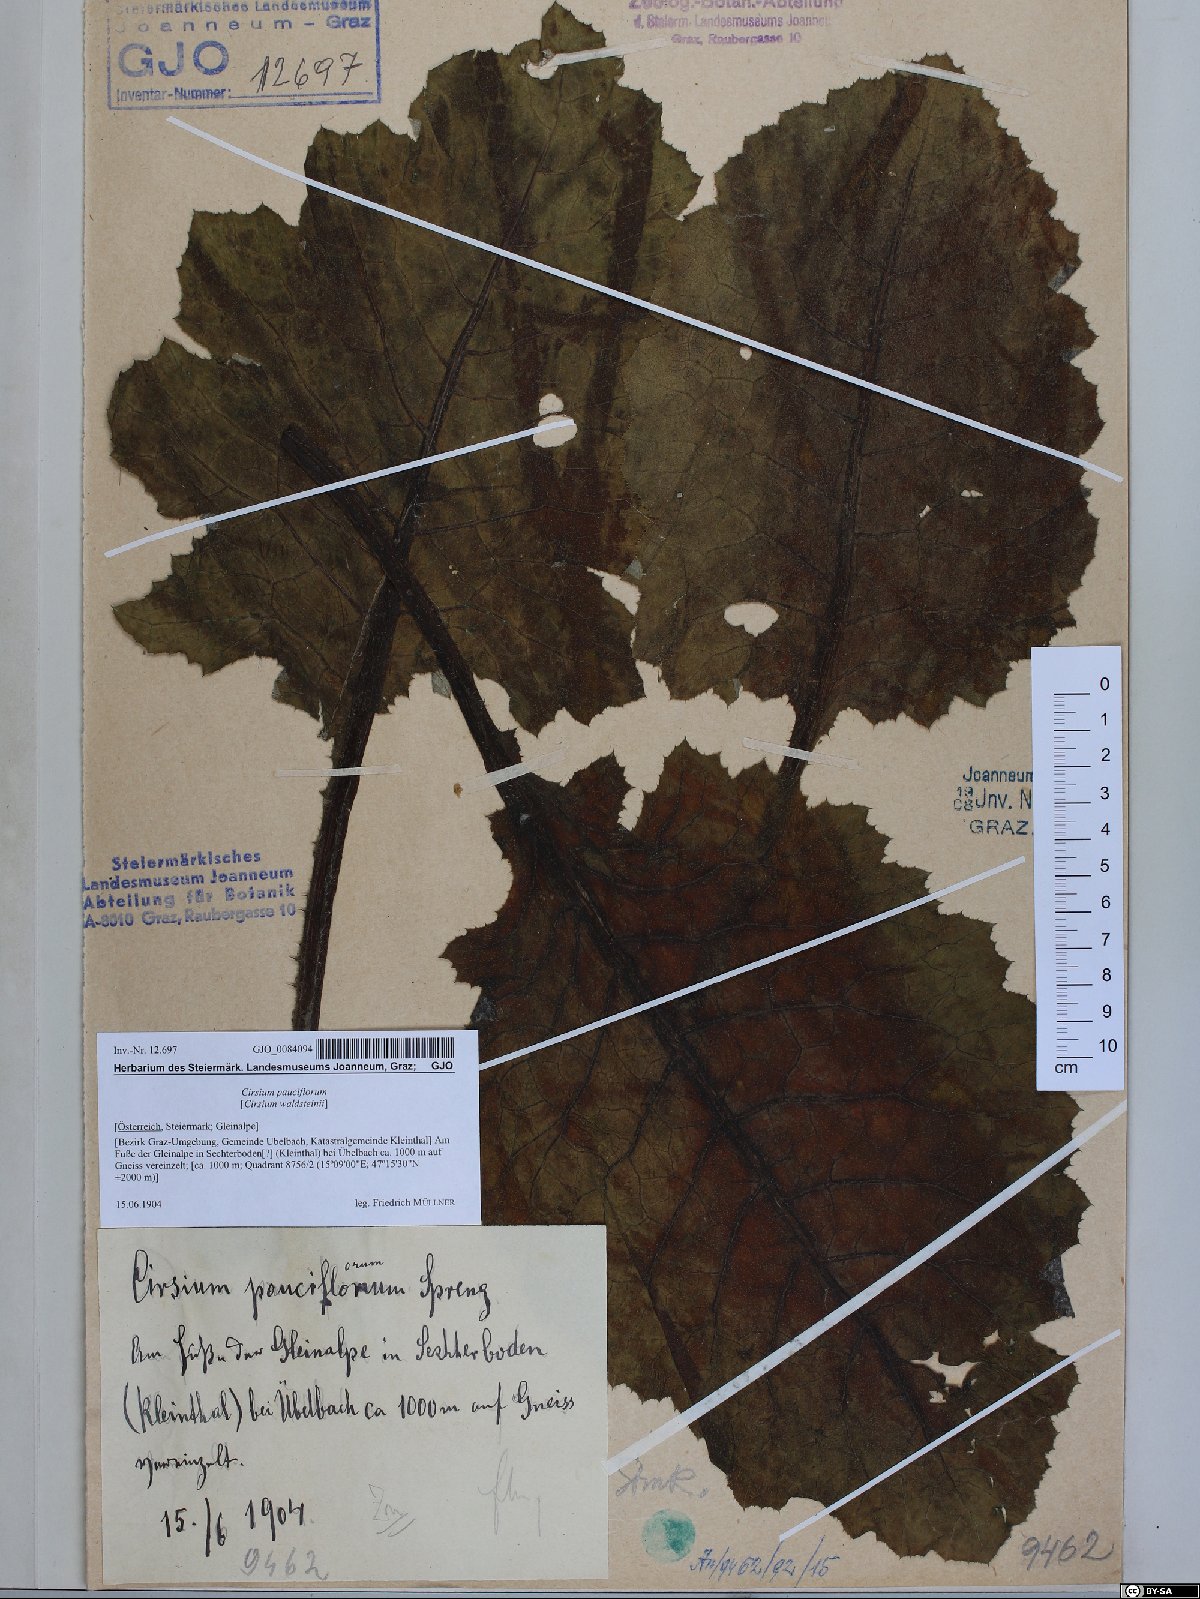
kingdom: Plantae
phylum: Tracheophyta
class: Magnoliopsida
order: Asterales
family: Asteraceae
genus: Cirsium
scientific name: Cirsium greimleri
